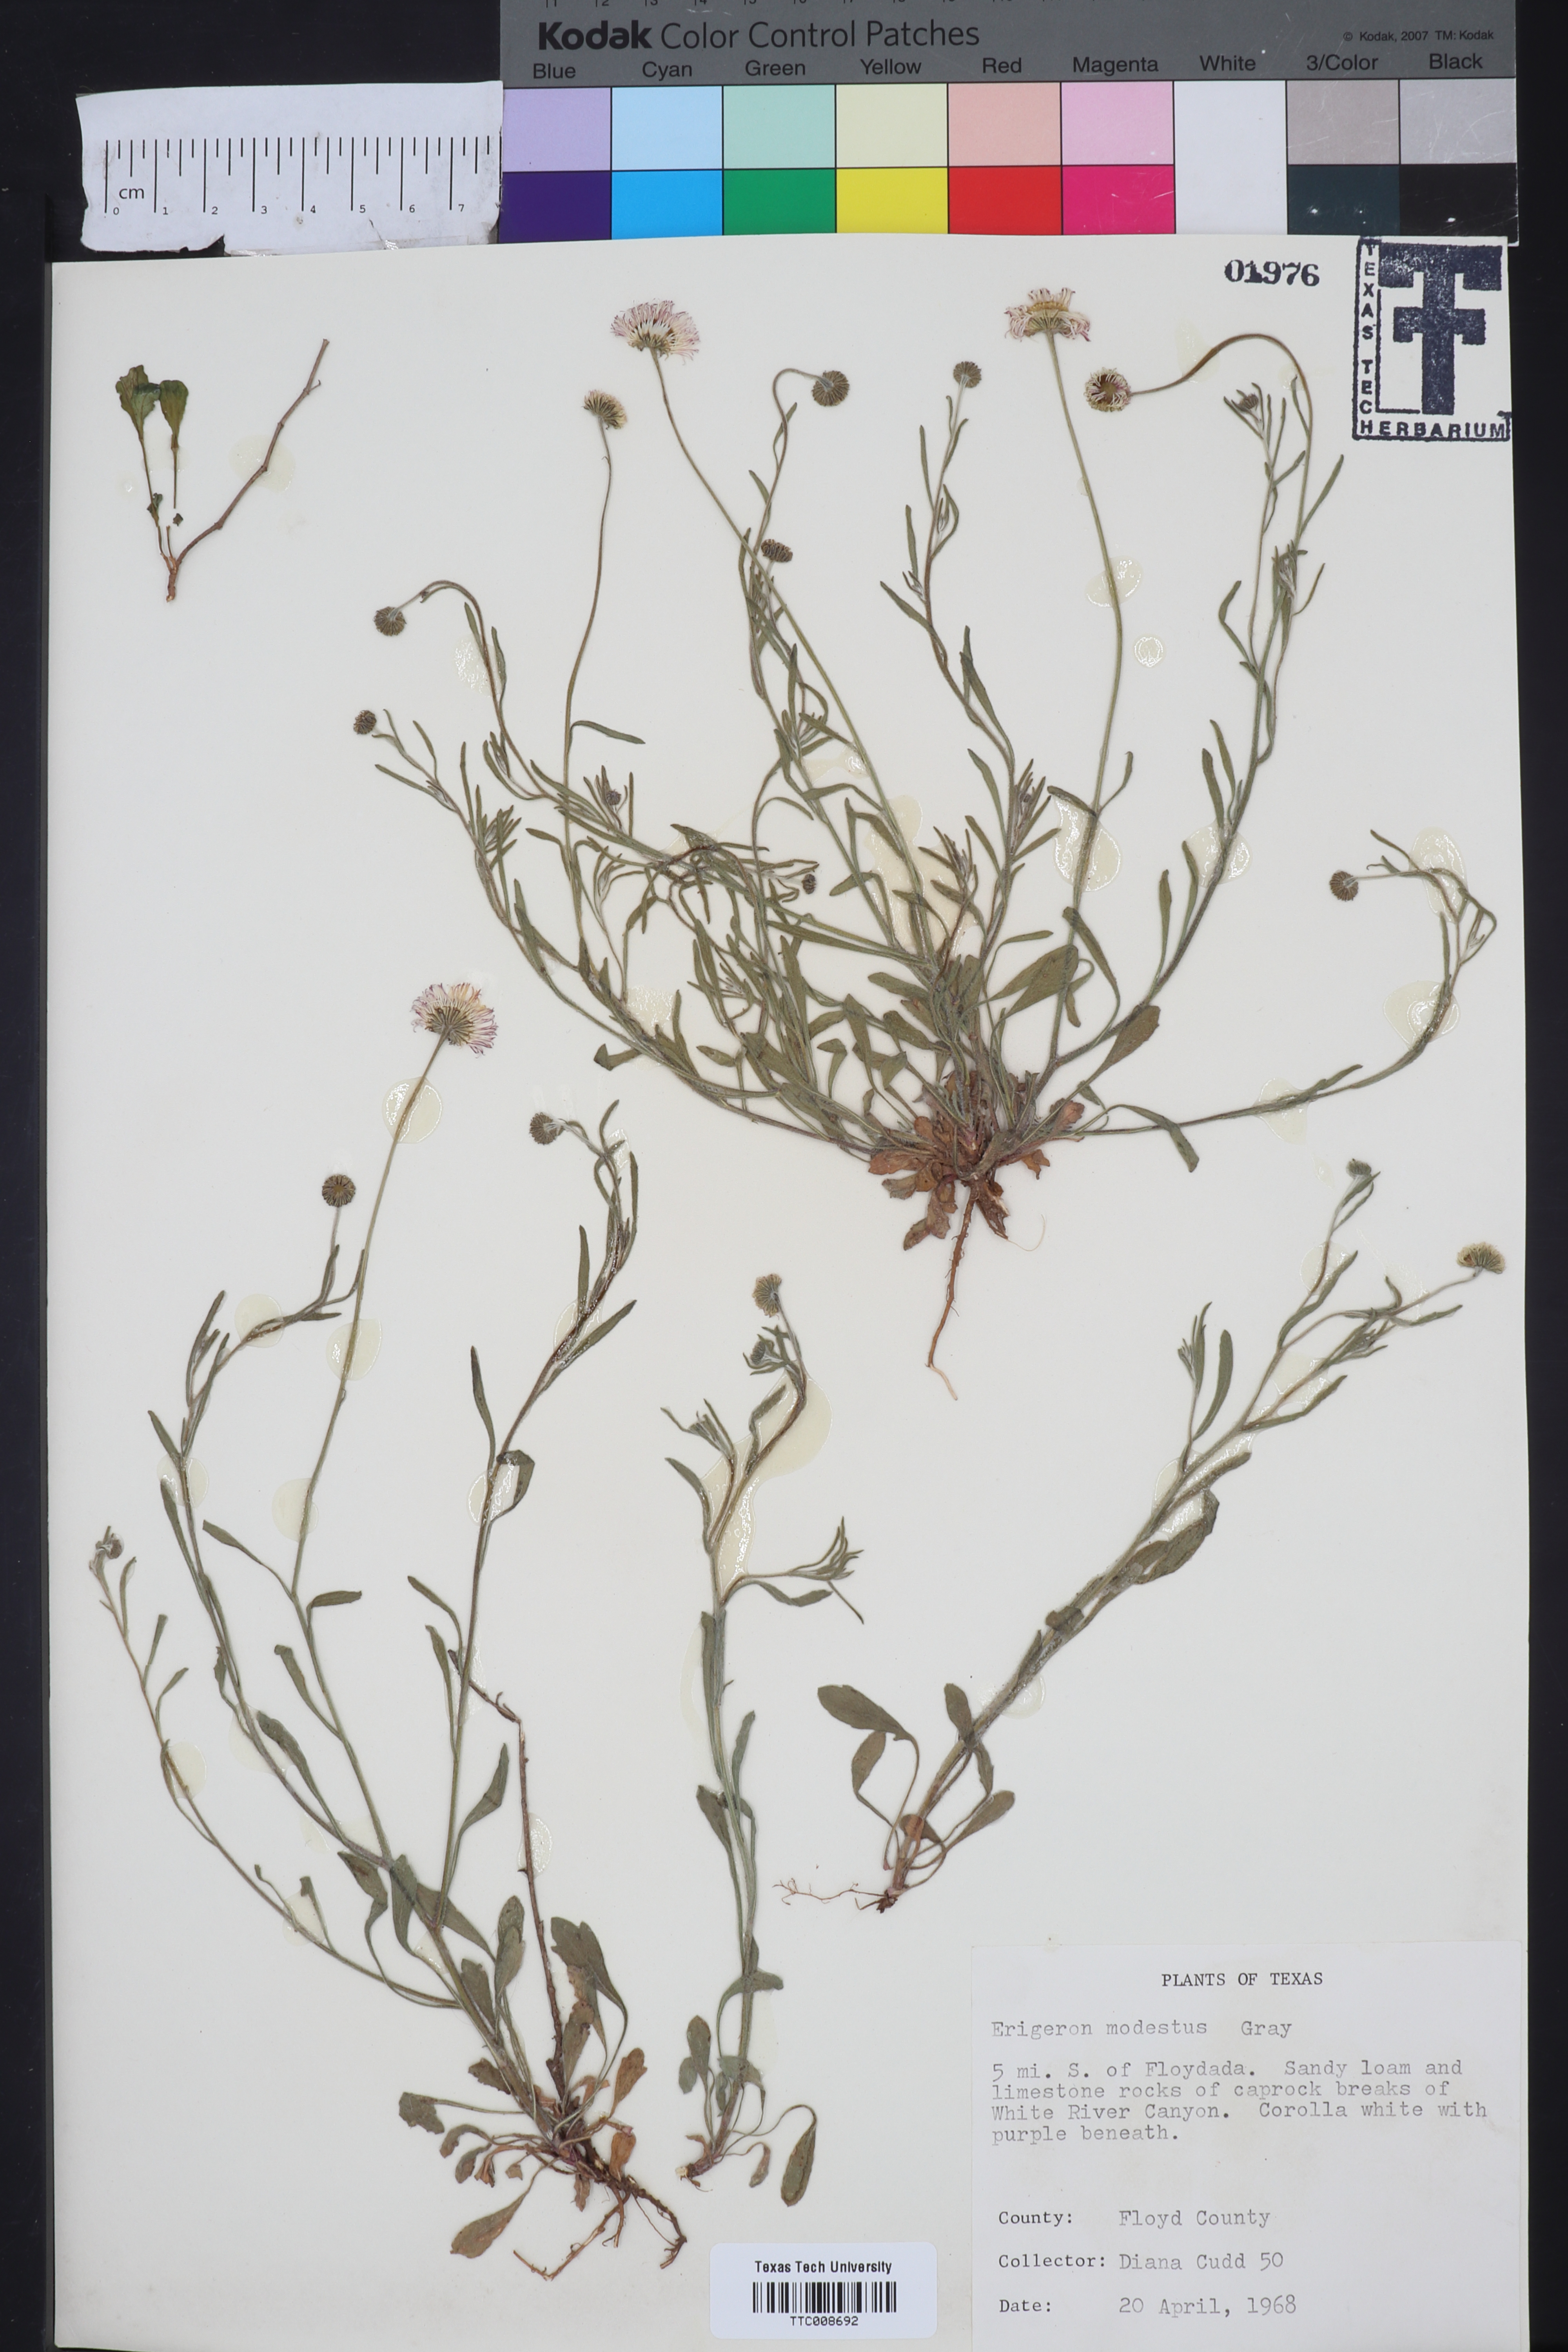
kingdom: Plantae
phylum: Tracheophyta
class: Magnoliopsida
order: Asterales
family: Asteraceae
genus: Erigeron
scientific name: Erigeron modestus
